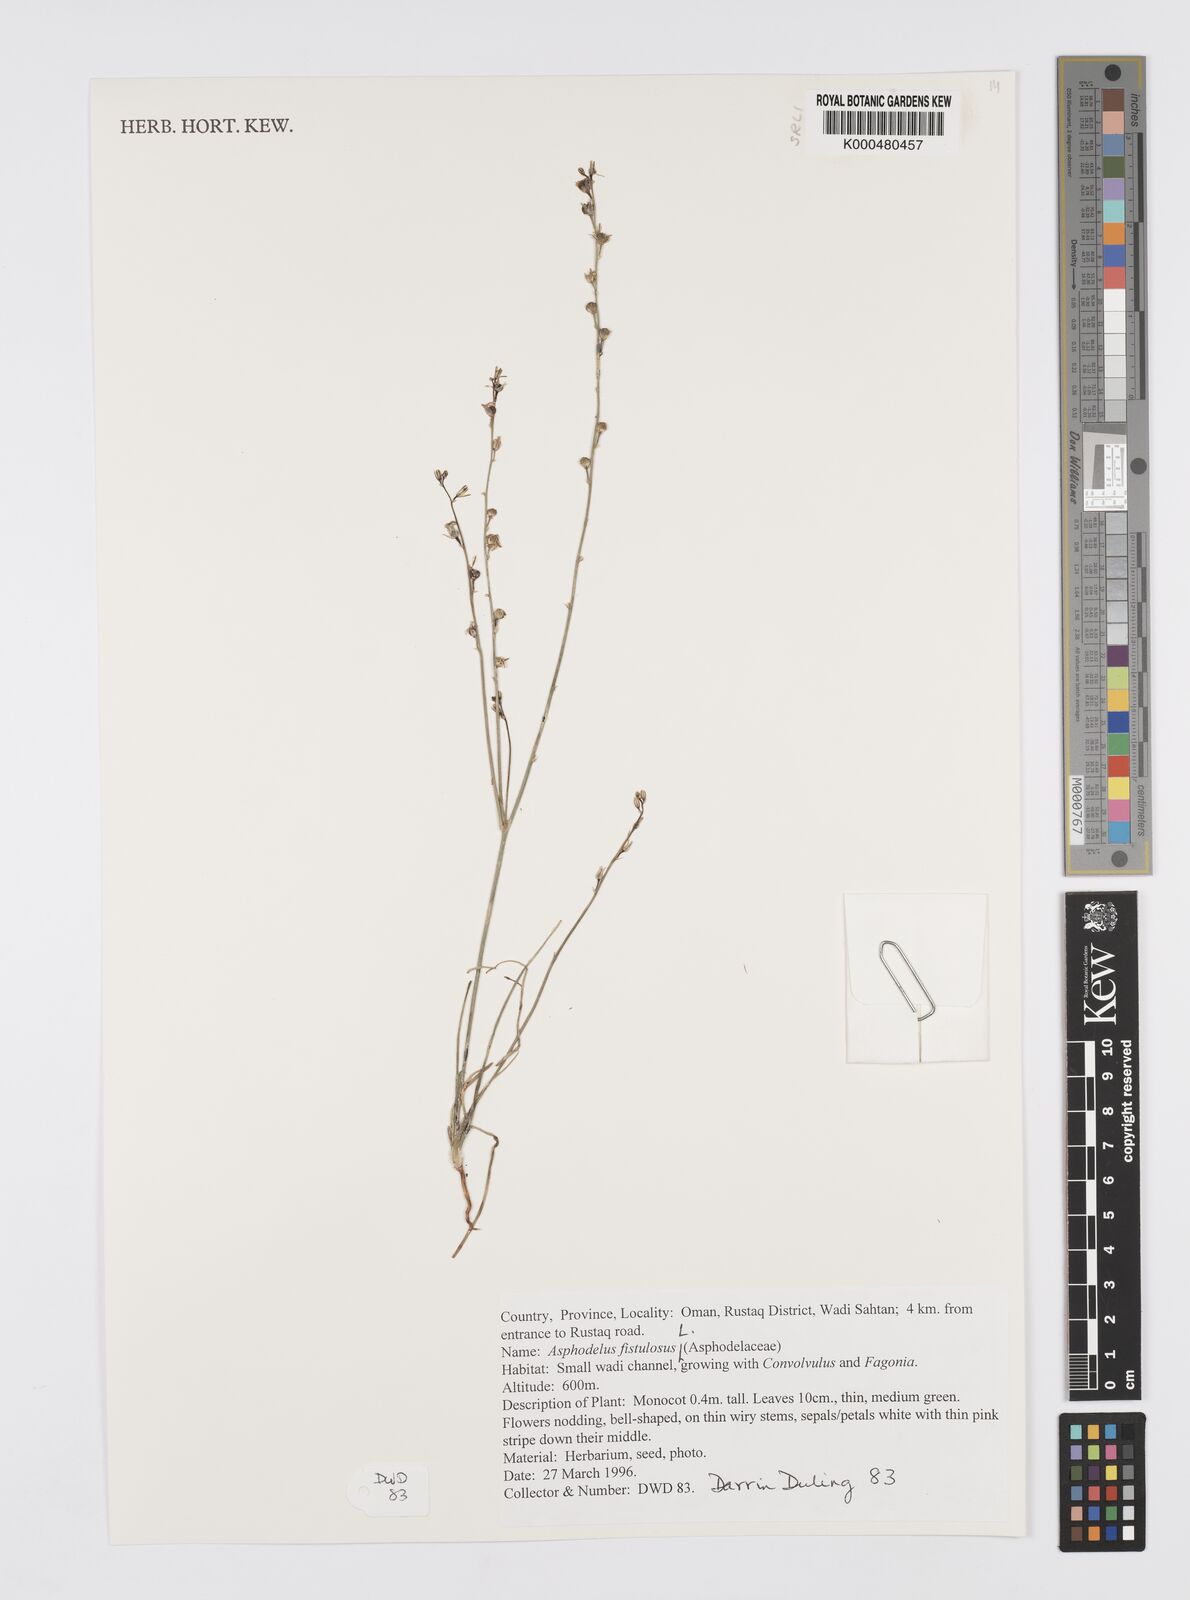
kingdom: Plantae
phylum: Tracheophyta
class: Liliopsida
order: Asparagales
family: Asphodelaceae
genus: Asphodelus
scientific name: Asphodelus fistulosus
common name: Onionweed
